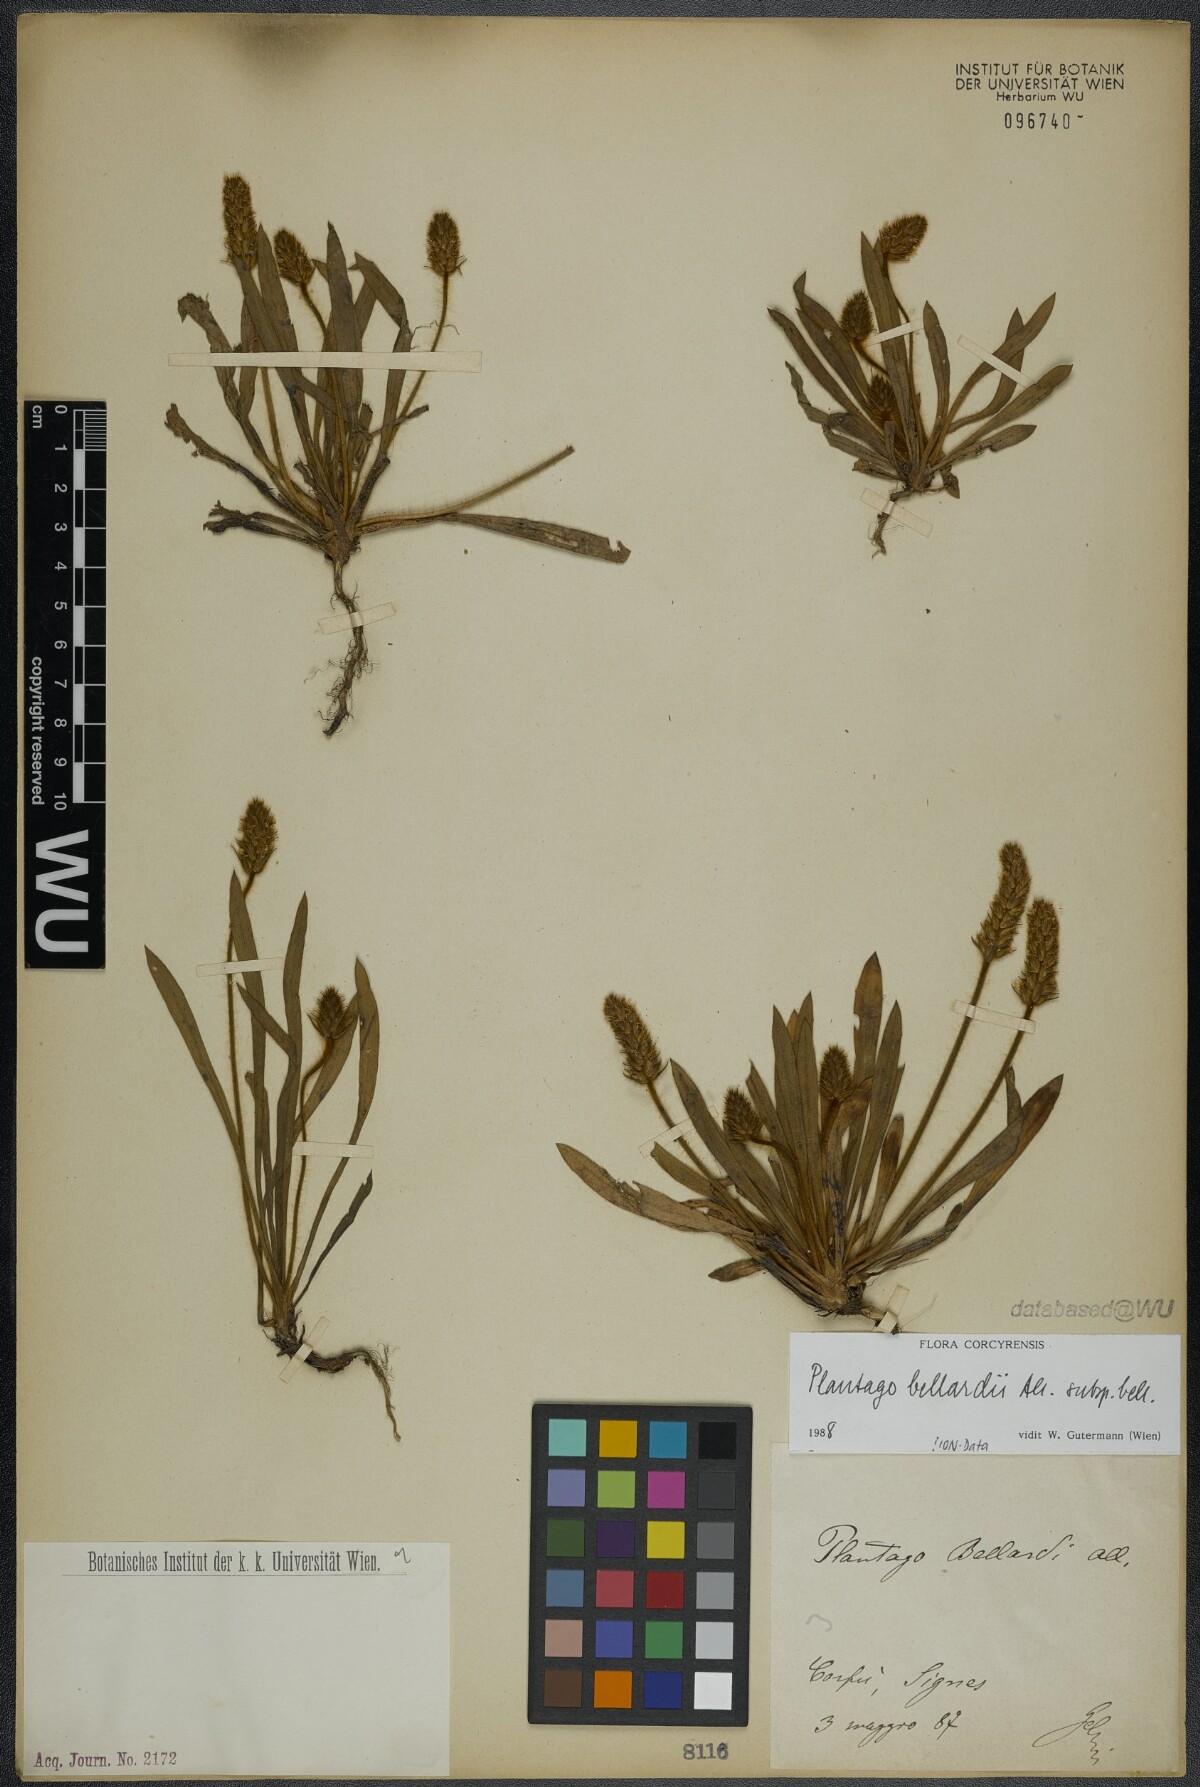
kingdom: Plantae
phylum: Tracheophyta
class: Magnoliopsida
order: Lamiales
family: Plantaginaceae
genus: Plantago
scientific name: Plantago bellardii
